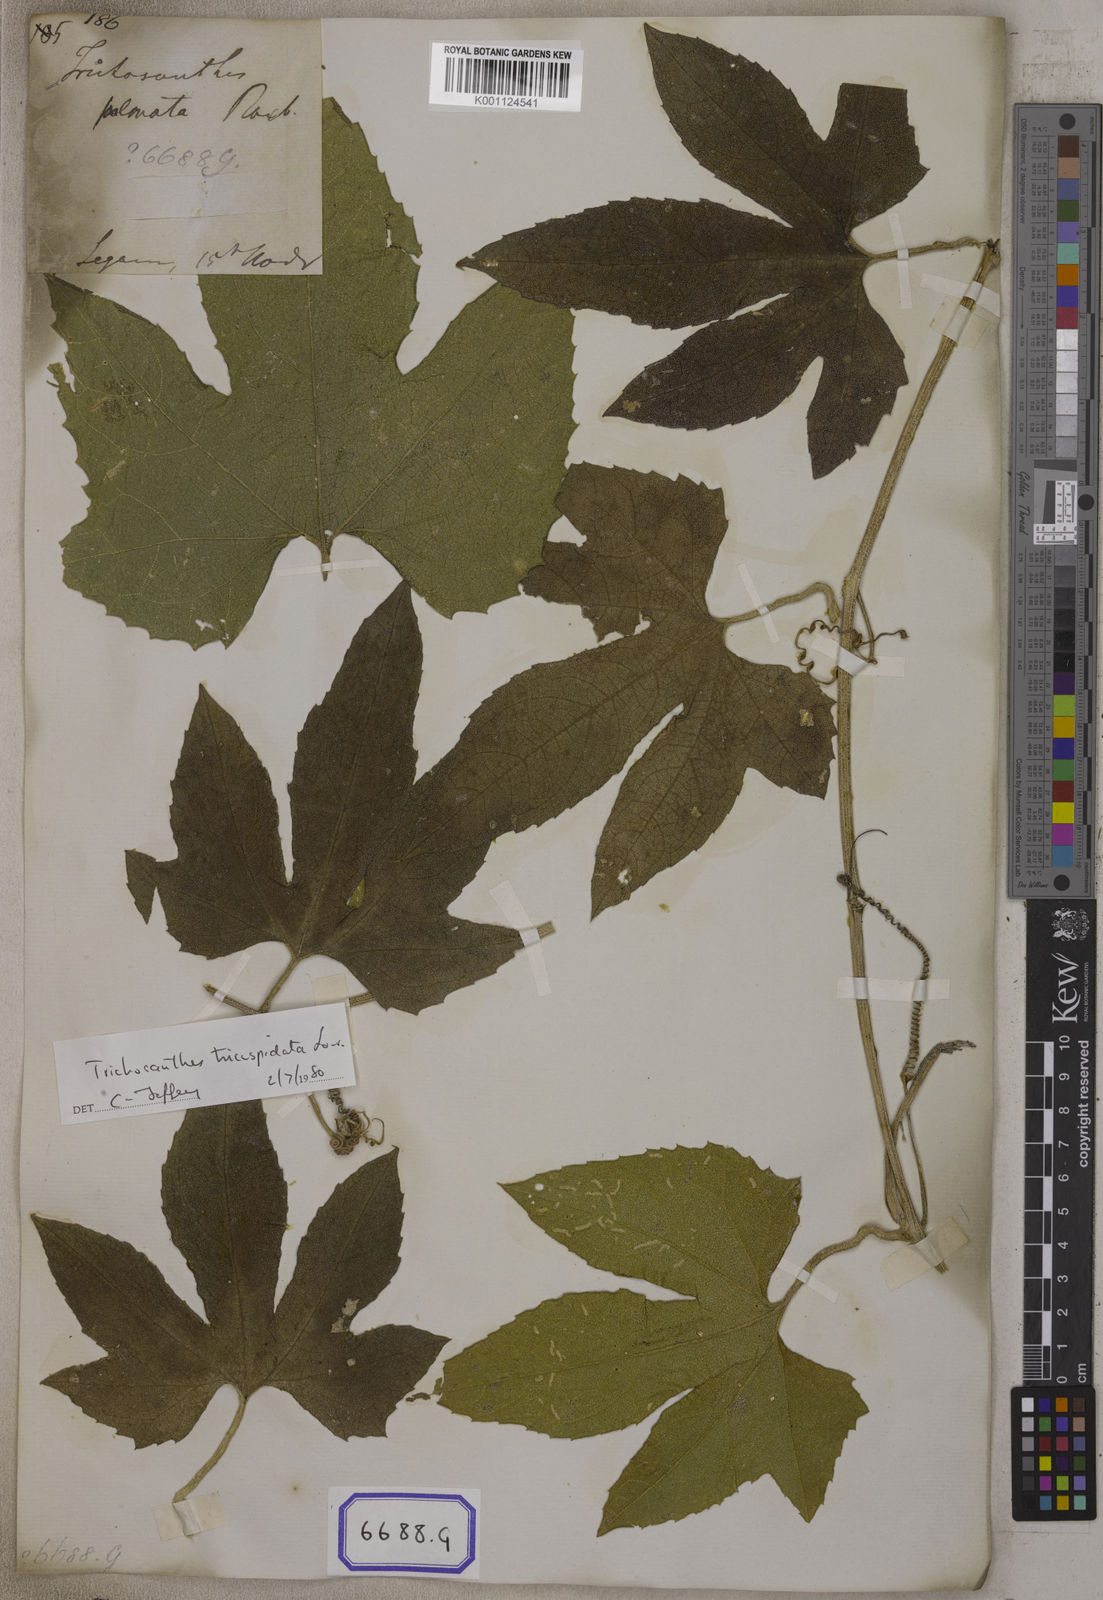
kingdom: Plantae
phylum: Tracheophyta
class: Magnoliopsida
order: Cucurbitales
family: Cucurbitaceae
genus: Trichosanthes
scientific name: Trichosanthes
